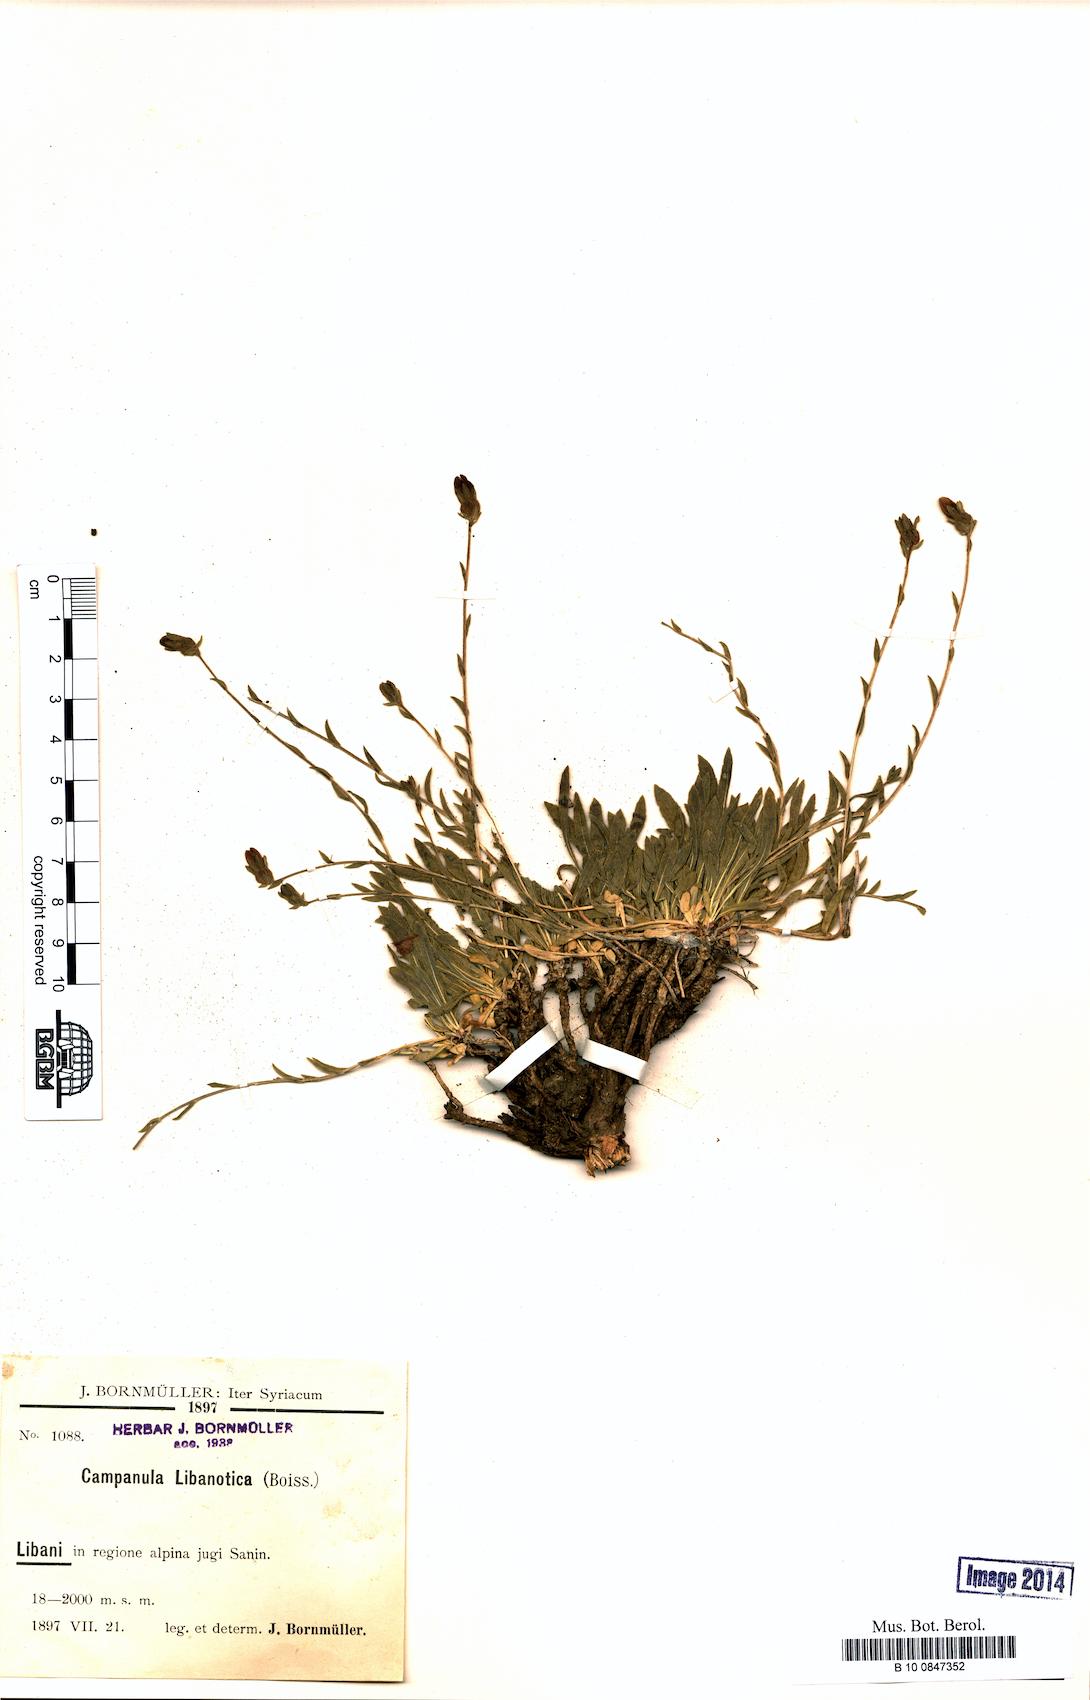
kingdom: Plantae
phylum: Tracheophyta
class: Magnoliopsida
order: Asterales
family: Campanulaceae
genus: Campanula
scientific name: Campanula stricta
